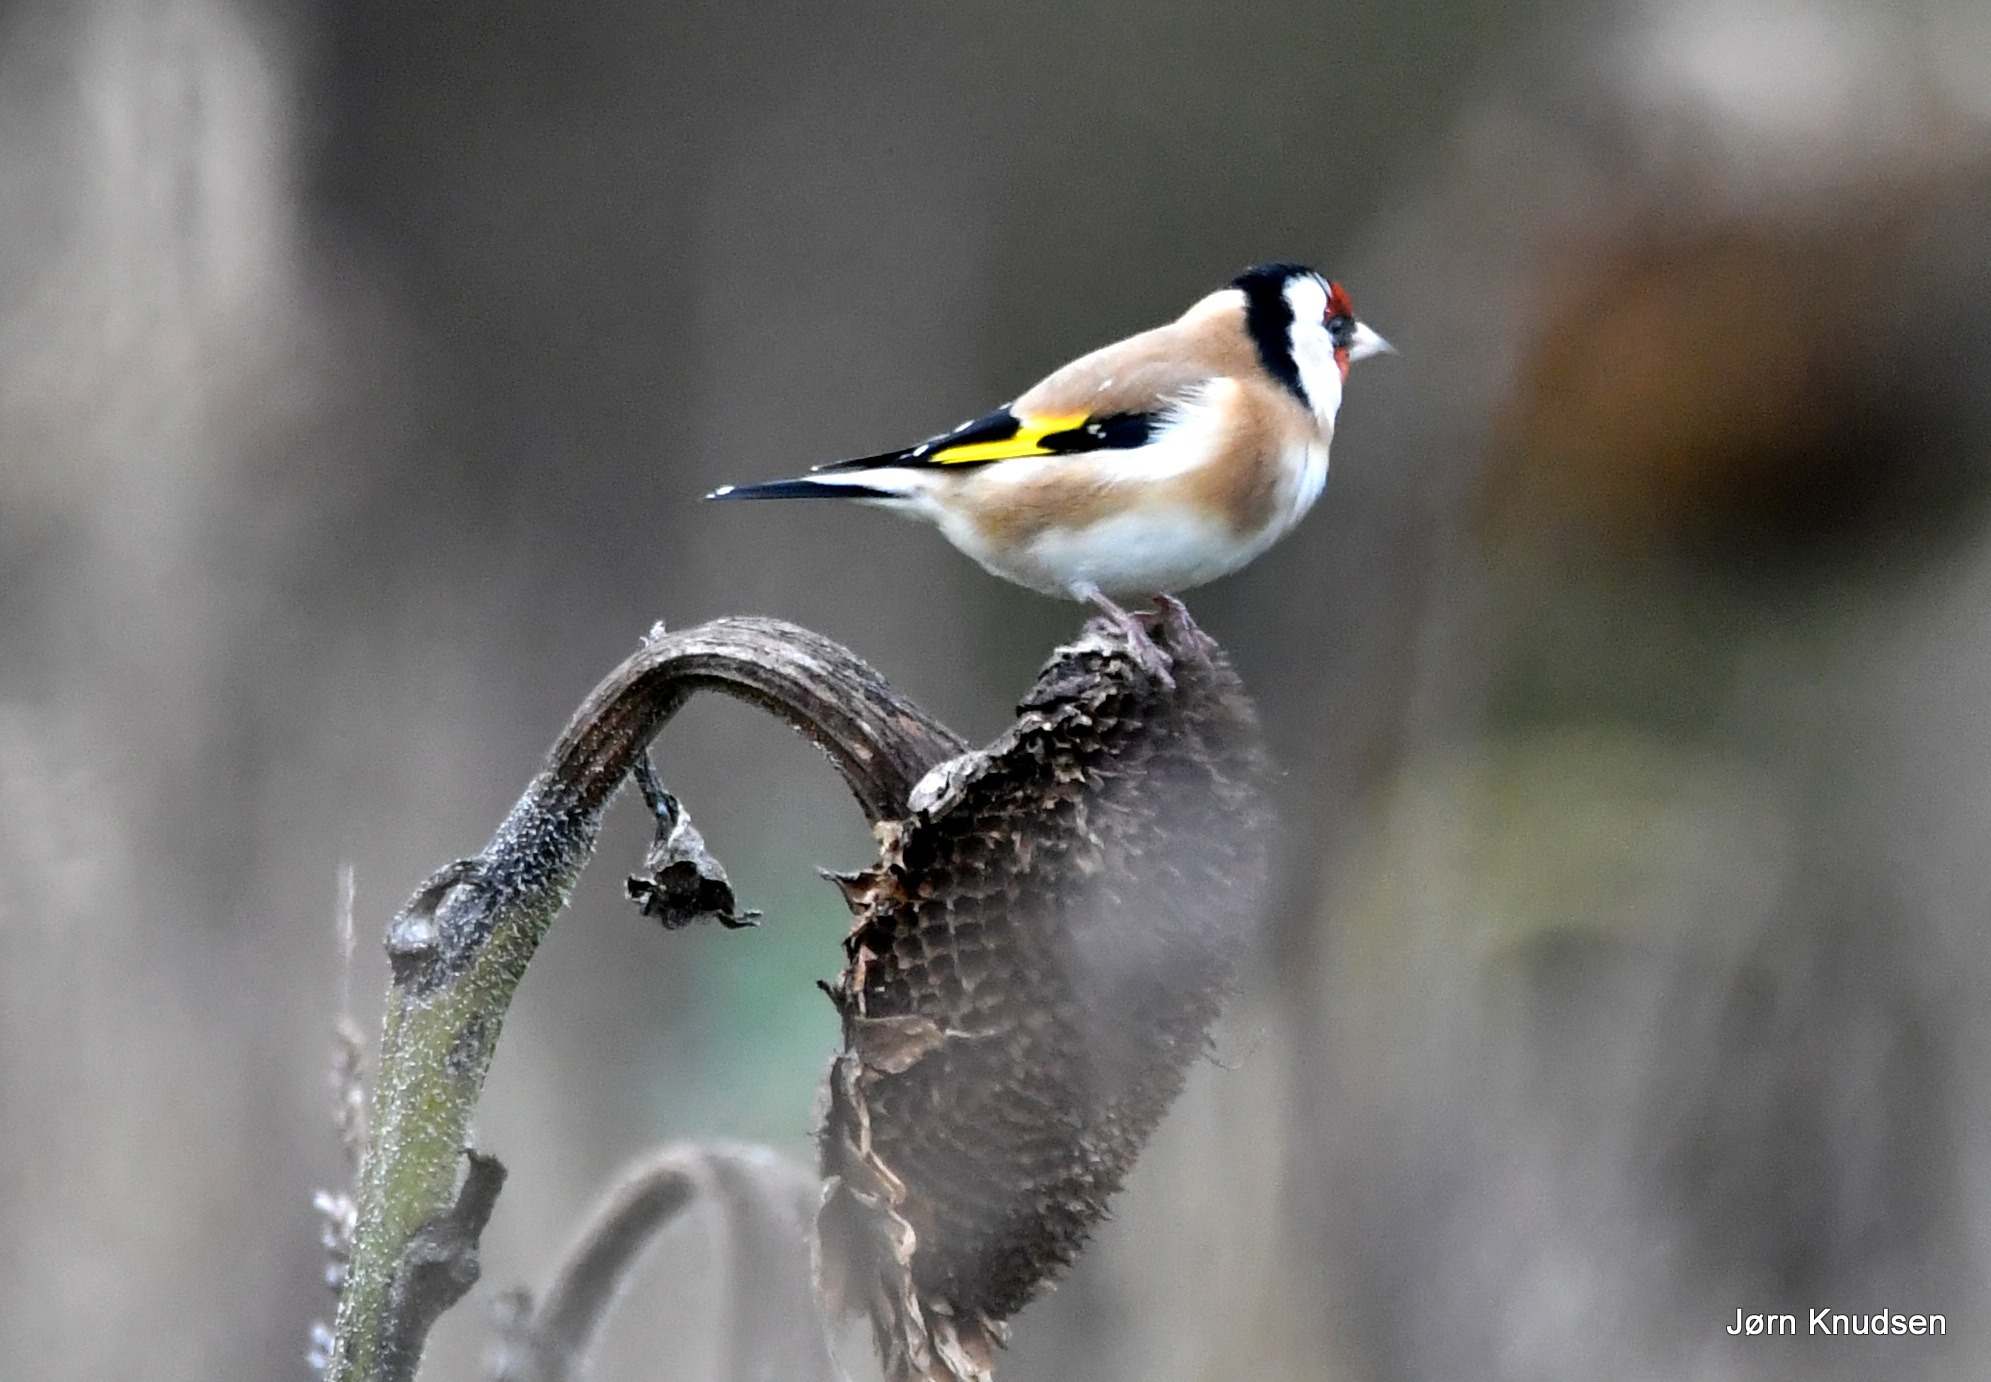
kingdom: Animalia
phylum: Chordata
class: Aves
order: Passeriformes
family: Fringillidae
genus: Carduelis
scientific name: Carduelis carduelis
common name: Stillits
